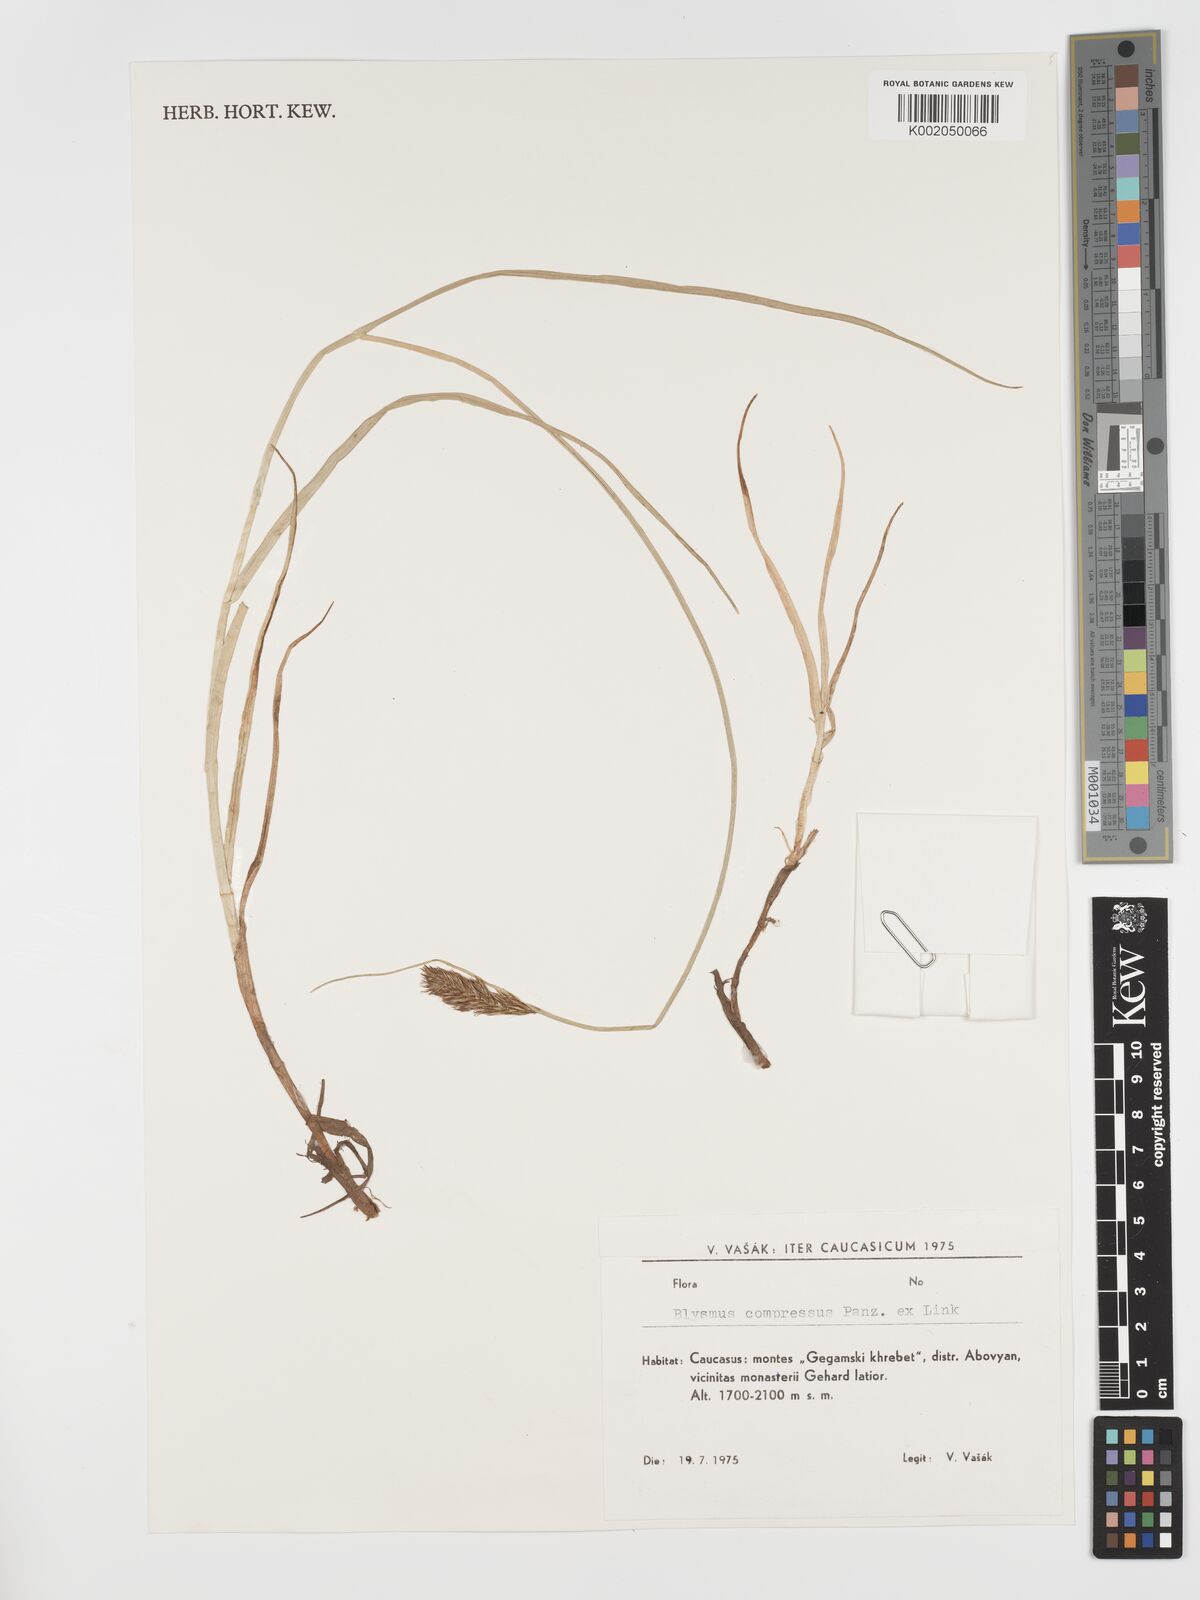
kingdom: Plantae
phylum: Tracheophyta
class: Liliopsida
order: Poales
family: Cyperaceae
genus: Blysmus
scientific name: Blysmus compressus
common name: Flat-sedge
